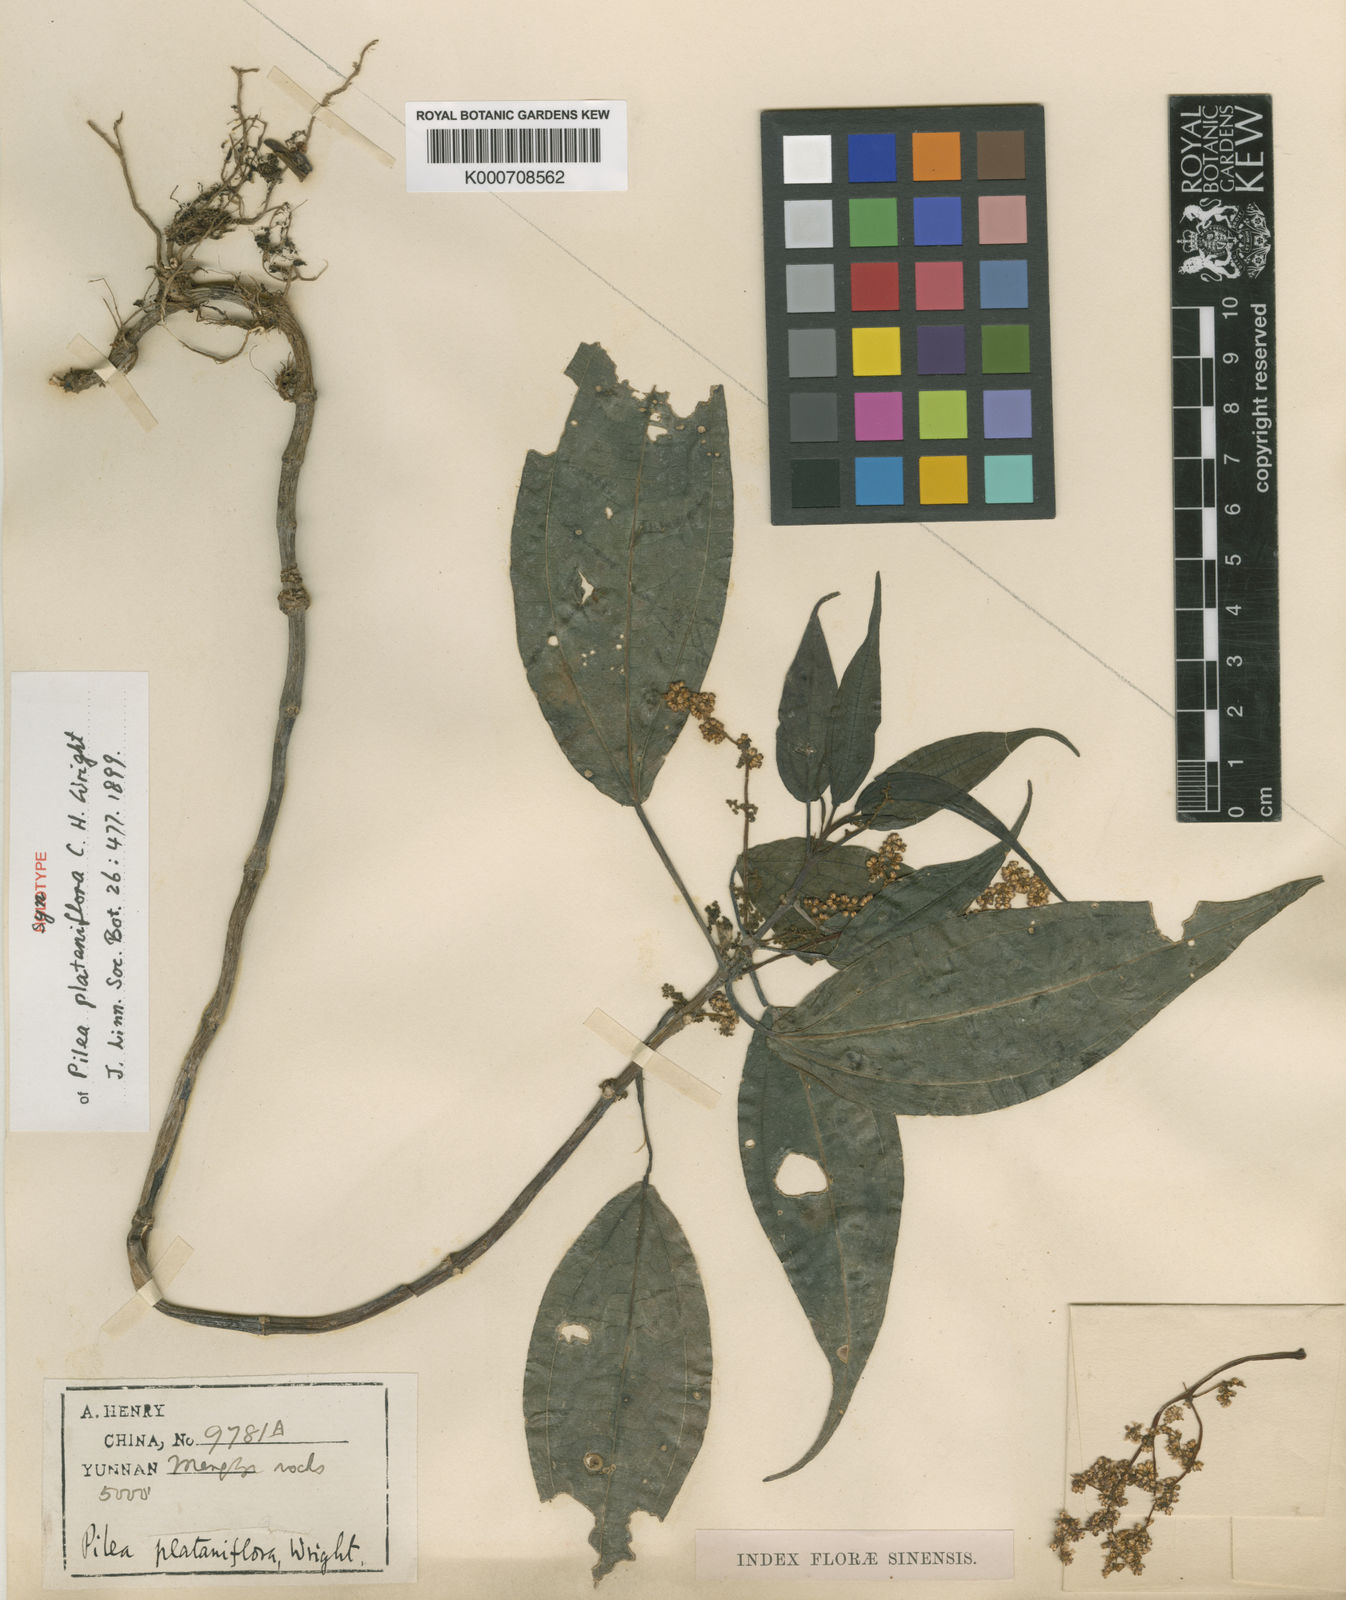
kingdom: Plantae
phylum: Tracheophyta
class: Magnoliopsida
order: Rosales
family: Urticaceae
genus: Pilea
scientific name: Pilea plataniflora
